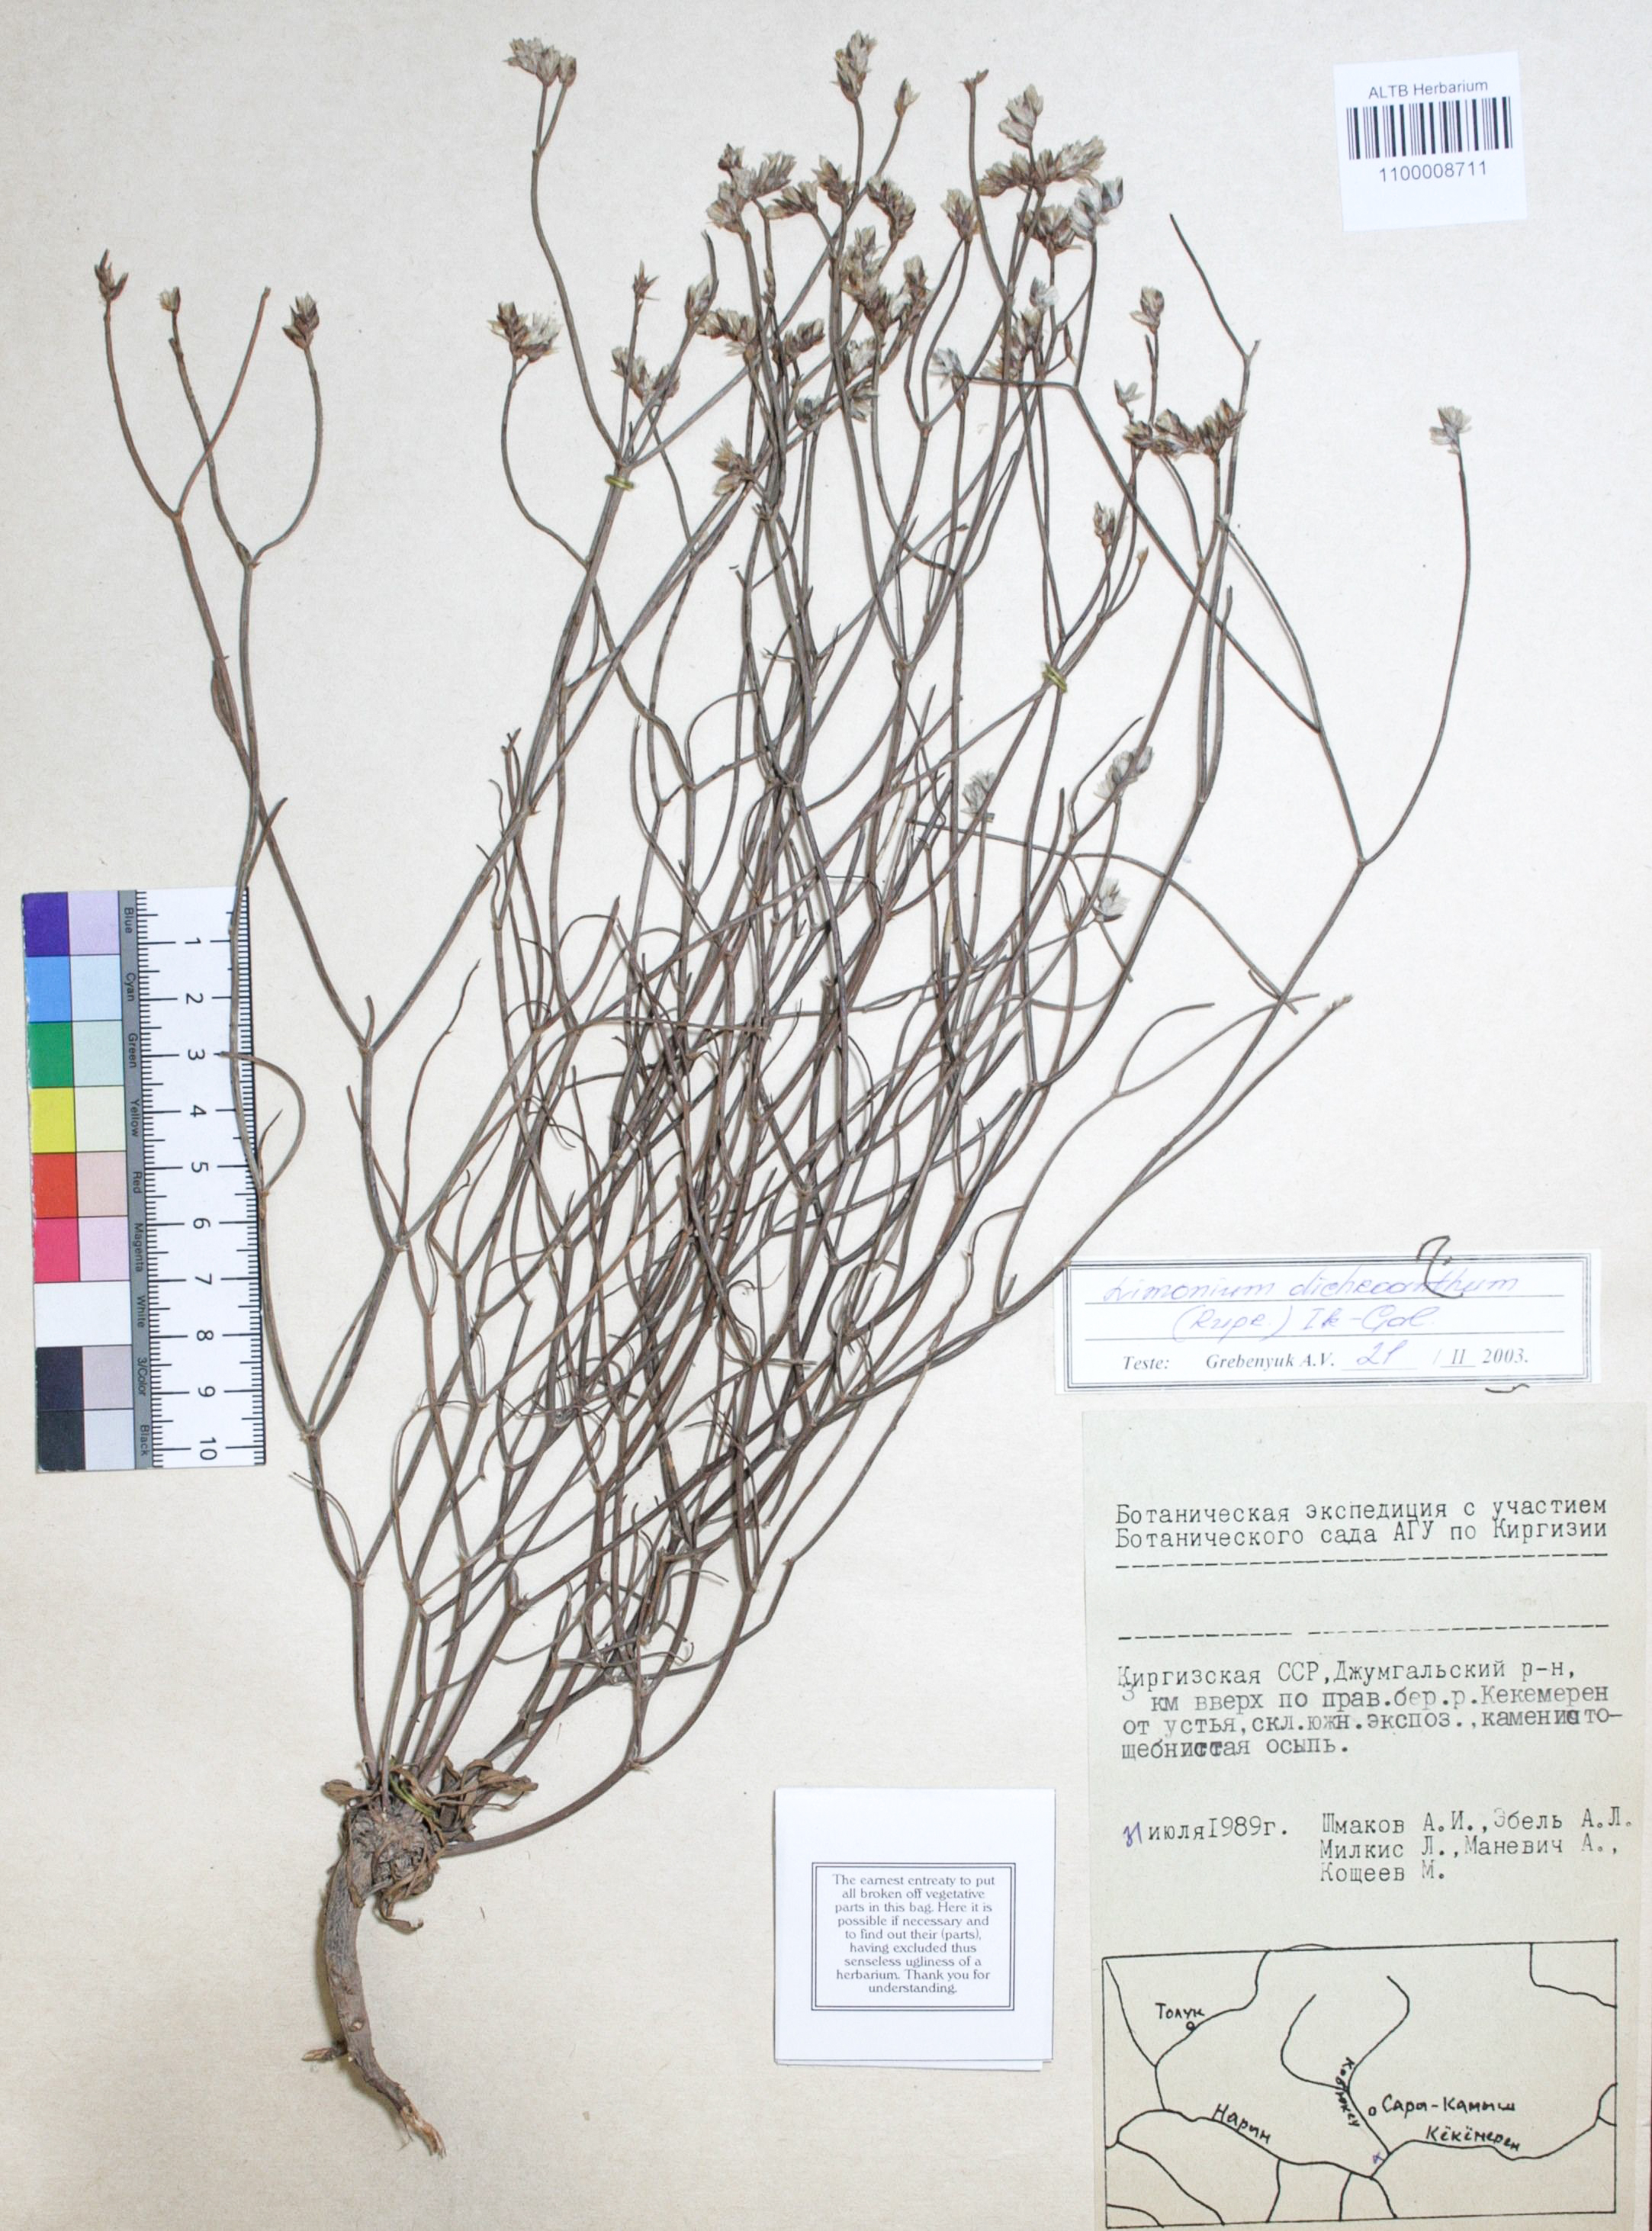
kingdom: Plantae
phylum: Tracheophyta
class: Magnoliopsida
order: Caryophyllales
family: Plumbaginaceae
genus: Limonium
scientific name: Limonium dichroanthum
